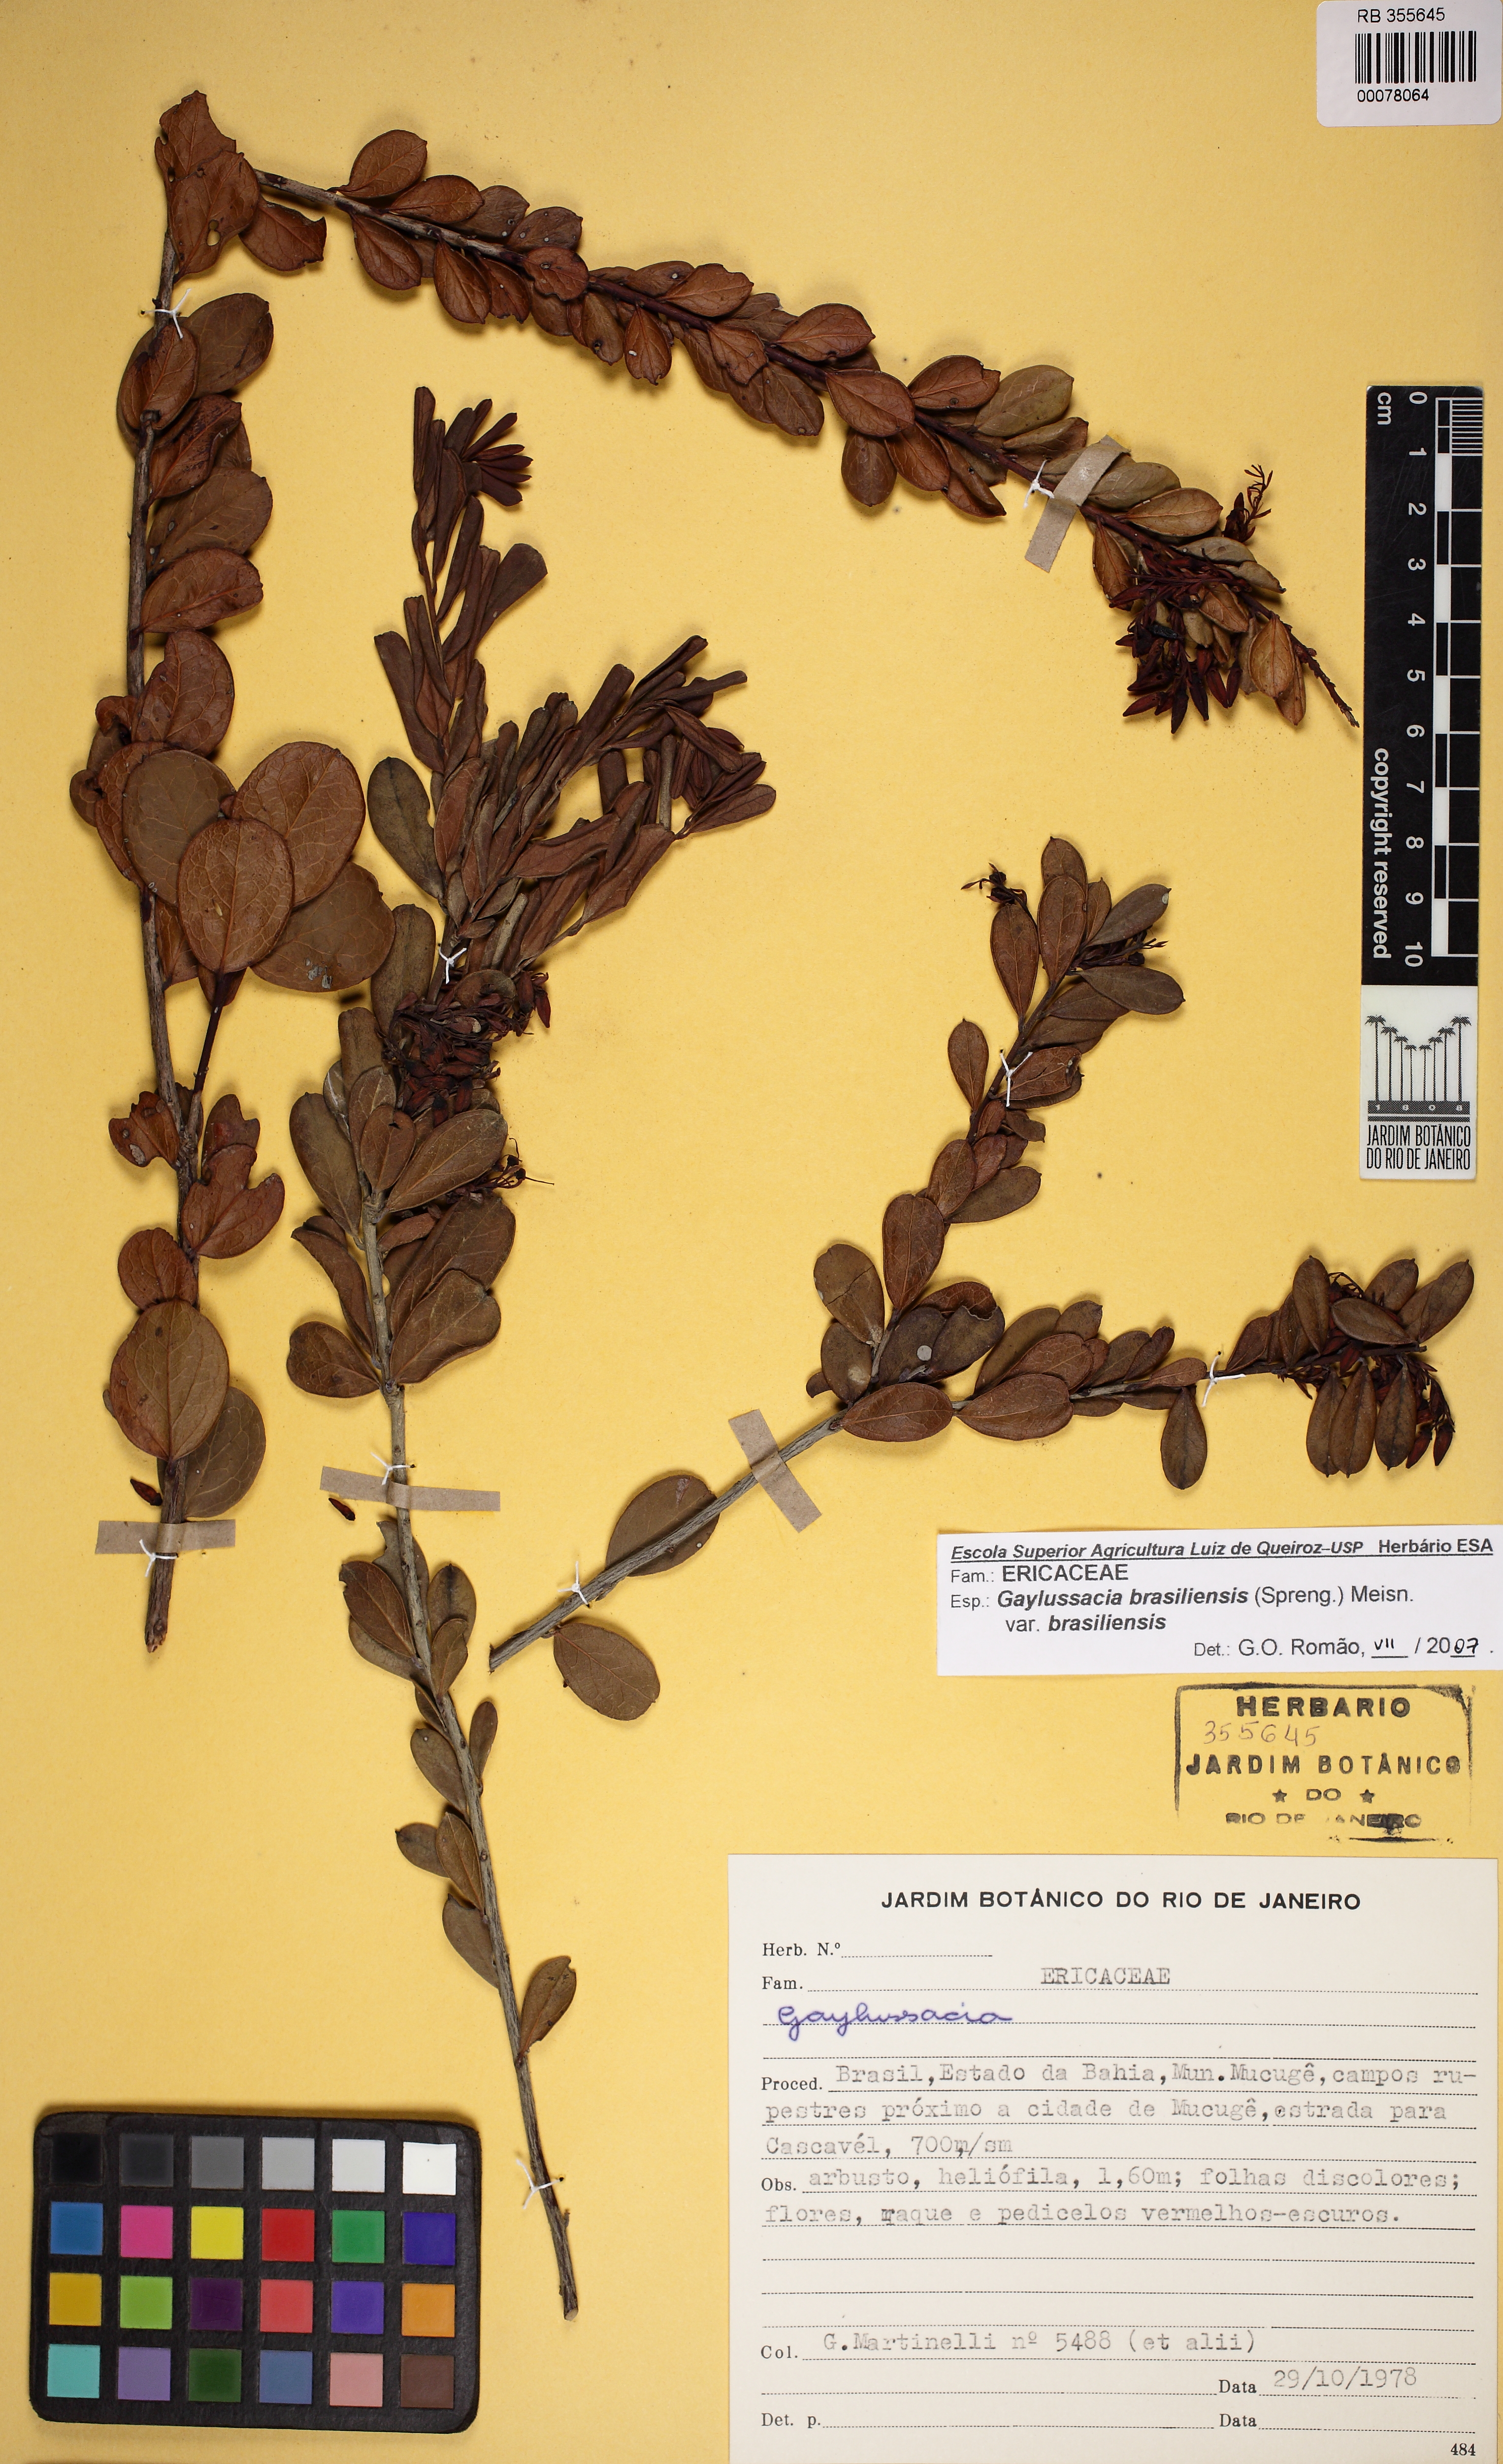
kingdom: Plantae
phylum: Tracheophyta
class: Magnoliopsida
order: Ericales
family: Ericaceae
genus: Gaylussacia
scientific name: Gaylussacia brasiliensis
